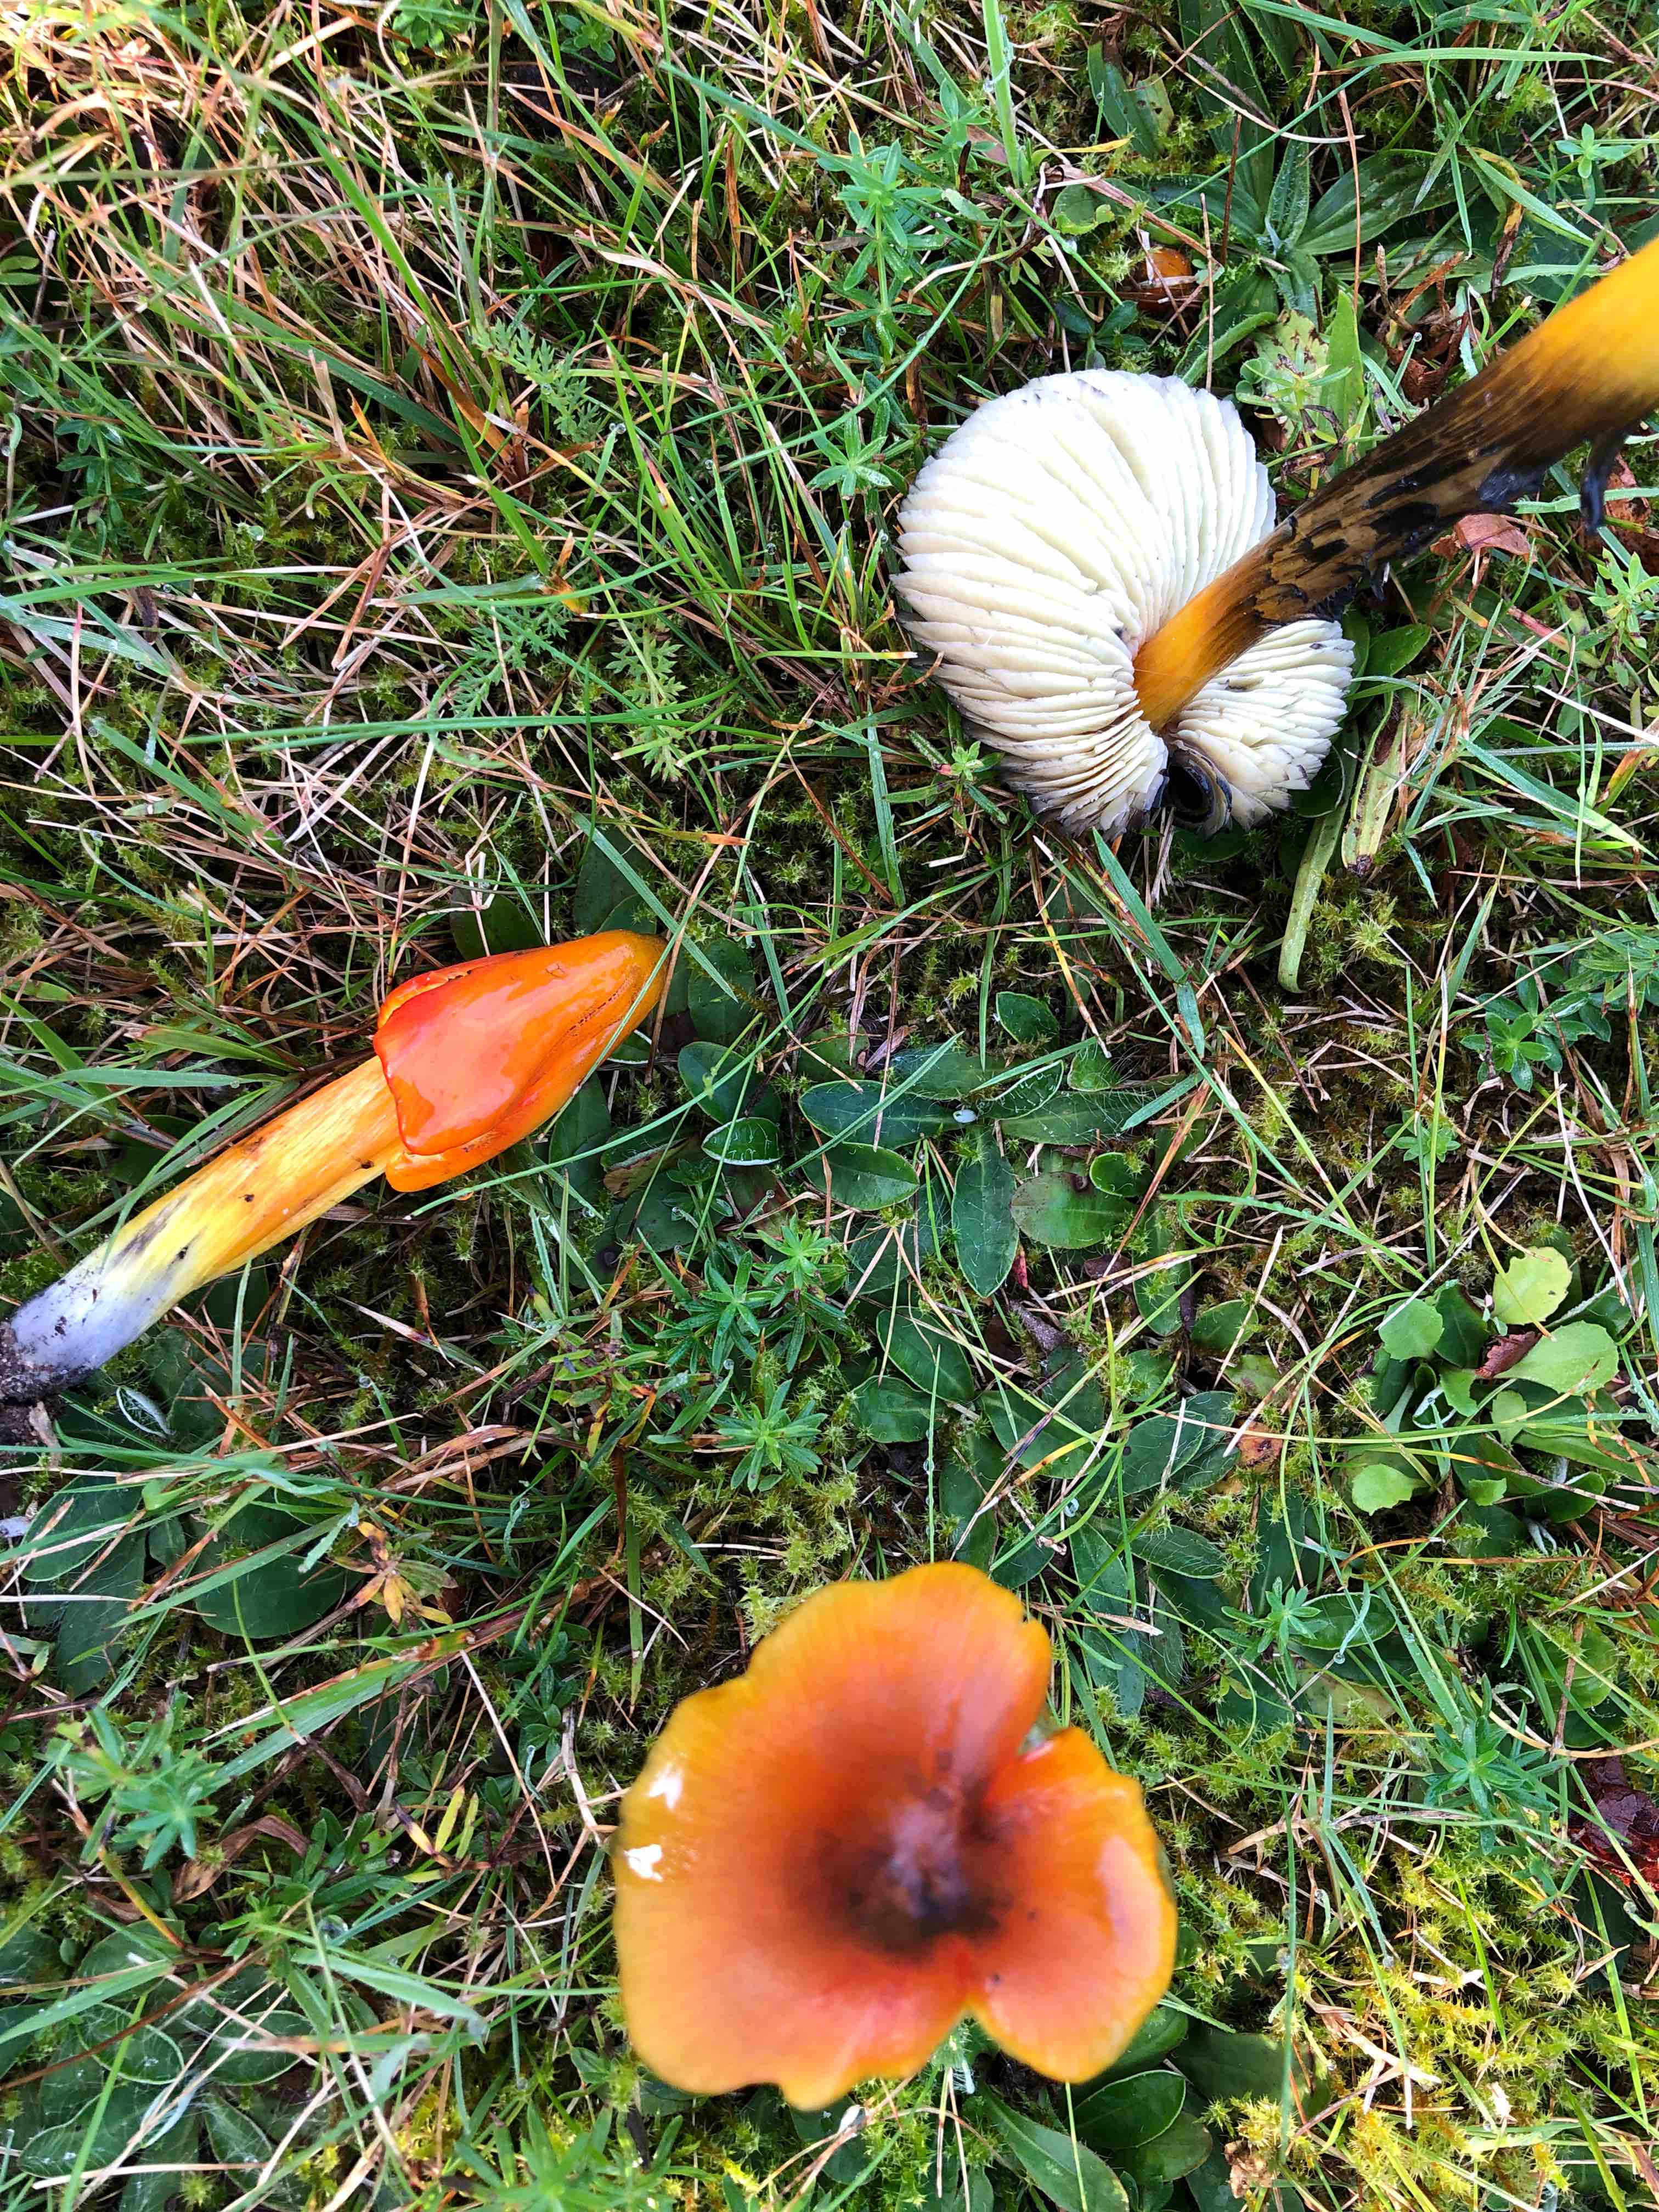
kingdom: Fungi
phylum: Basidiomycota
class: Agaricomycetes
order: Agaricales
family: Hygrophoraceae
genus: Hygrocybe
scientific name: Hygrocybe conica
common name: kegle-vokshat
